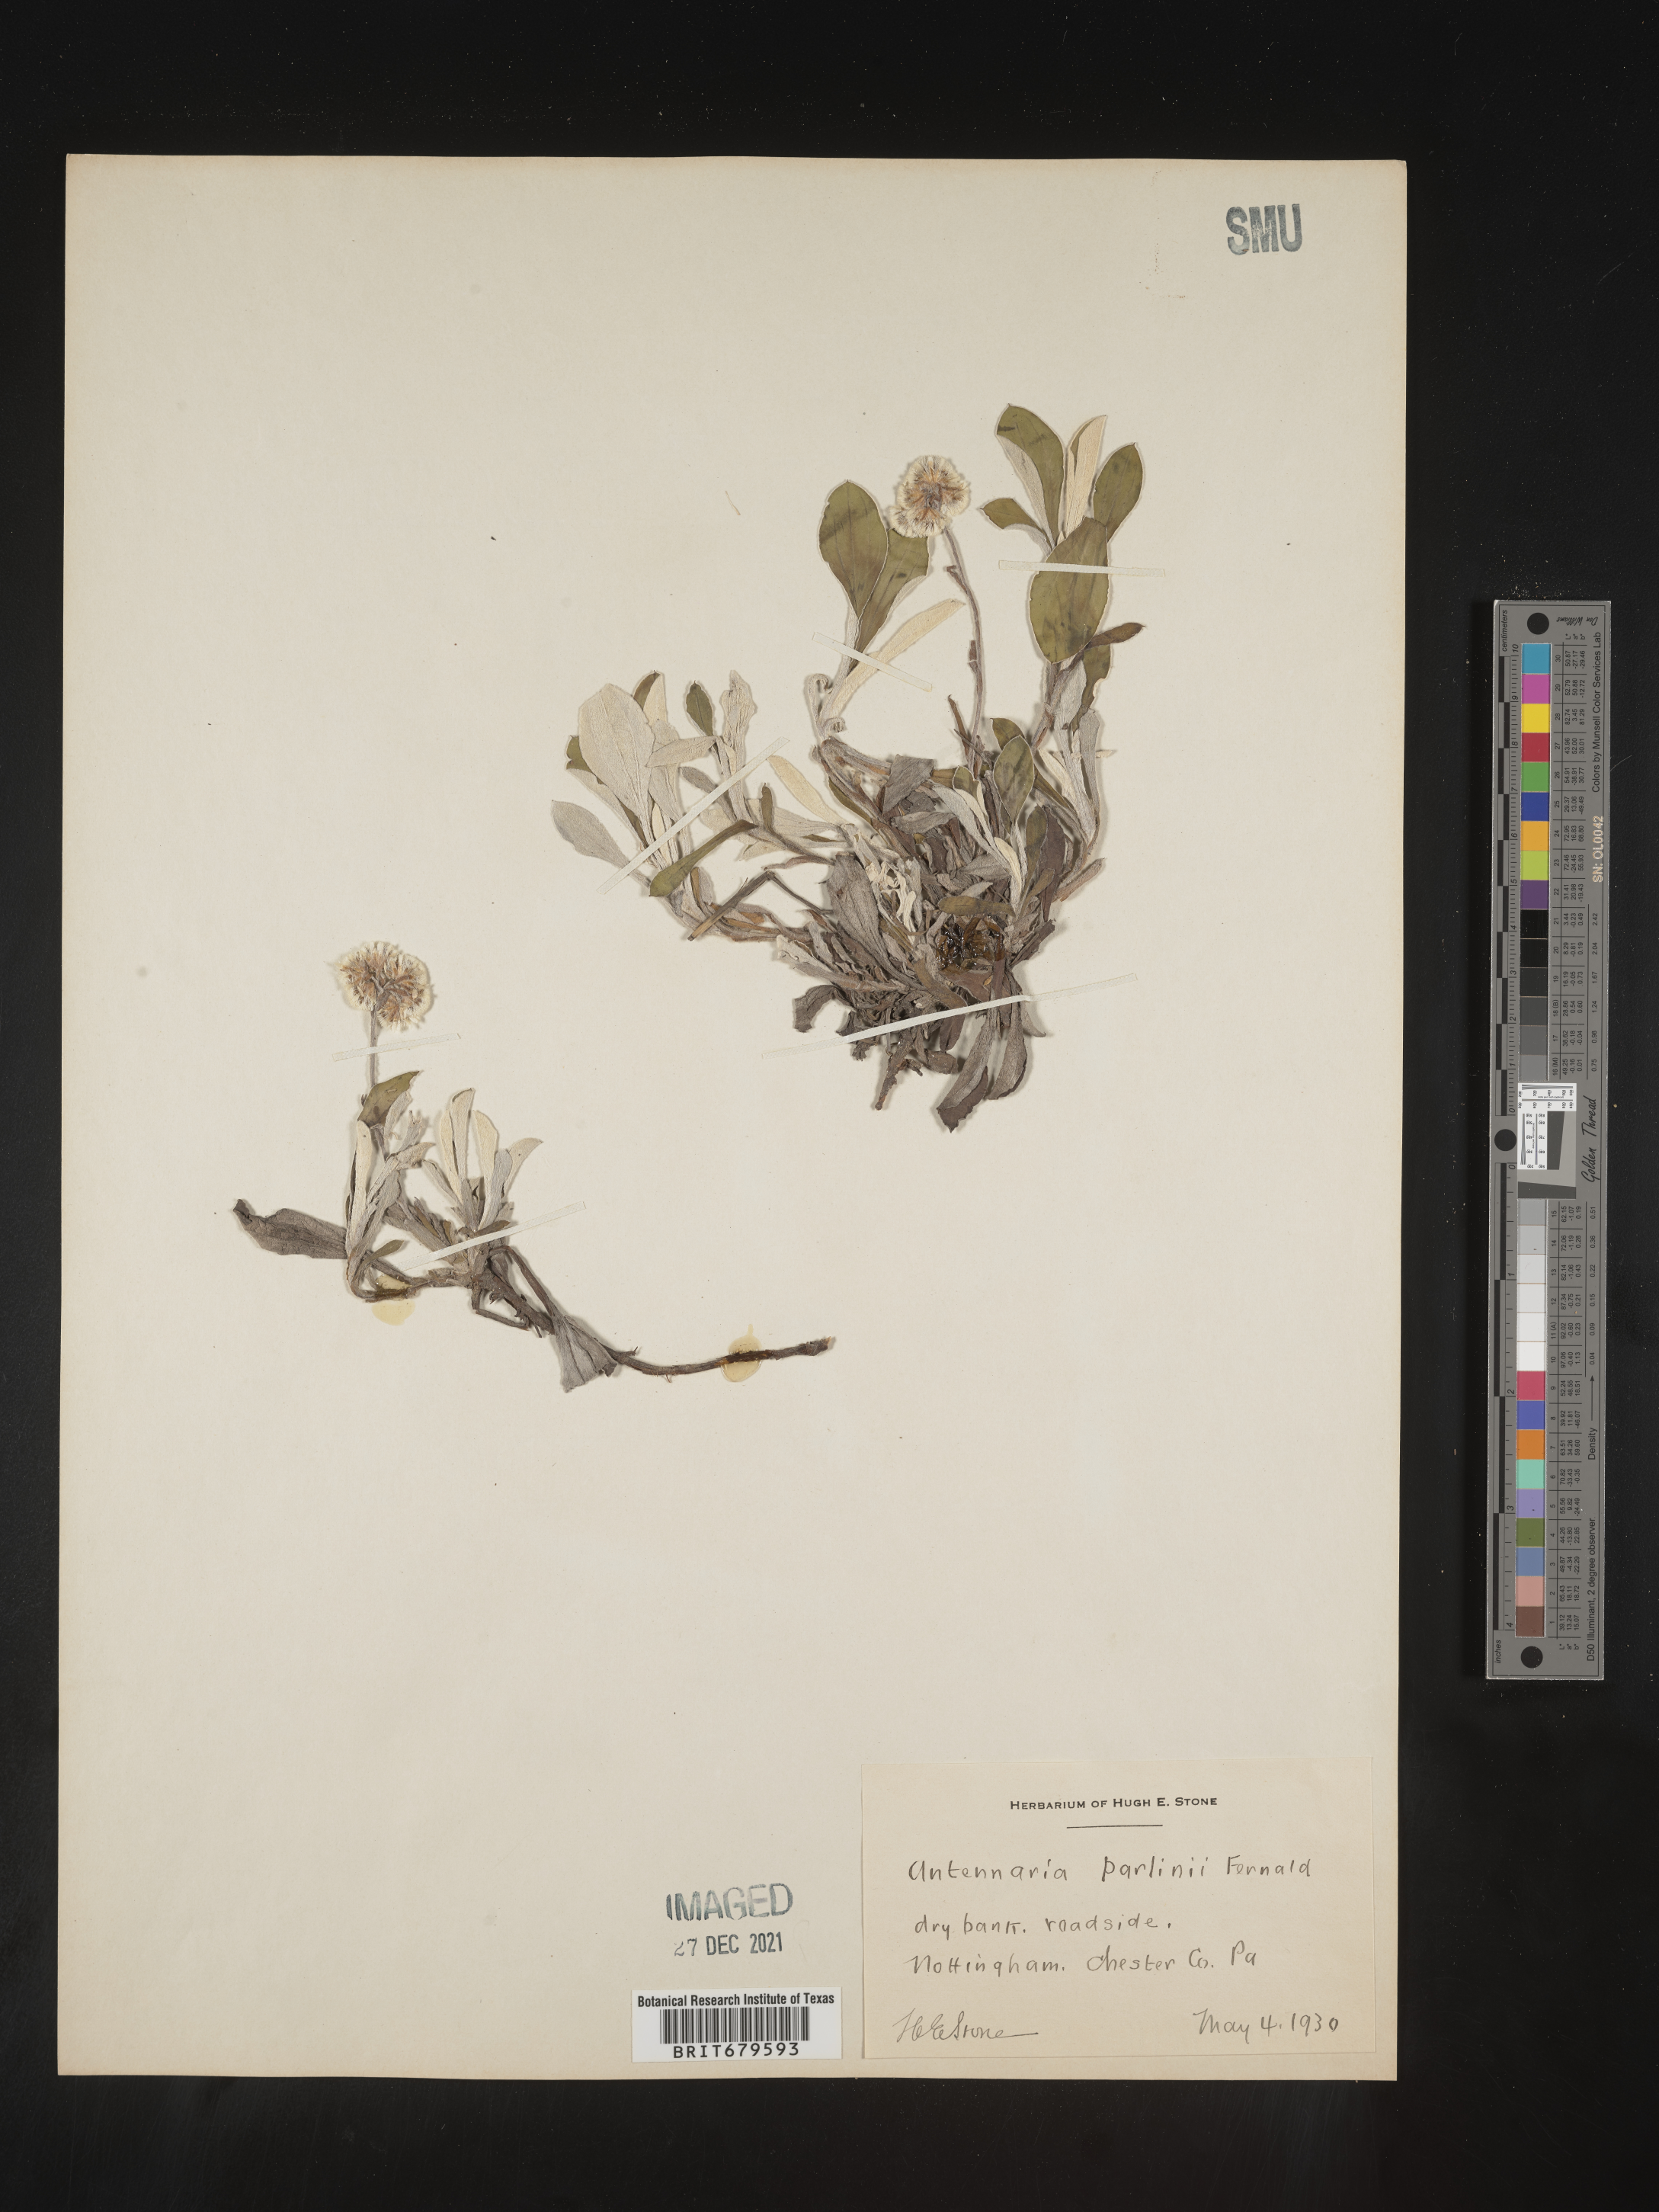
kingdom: Plantae
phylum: Tracheophyta
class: Magnoliopsida
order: Asterales
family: Asteraceae
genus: Antennaria
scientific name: Antennaria parlinii
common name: Parlin's pussytoes
